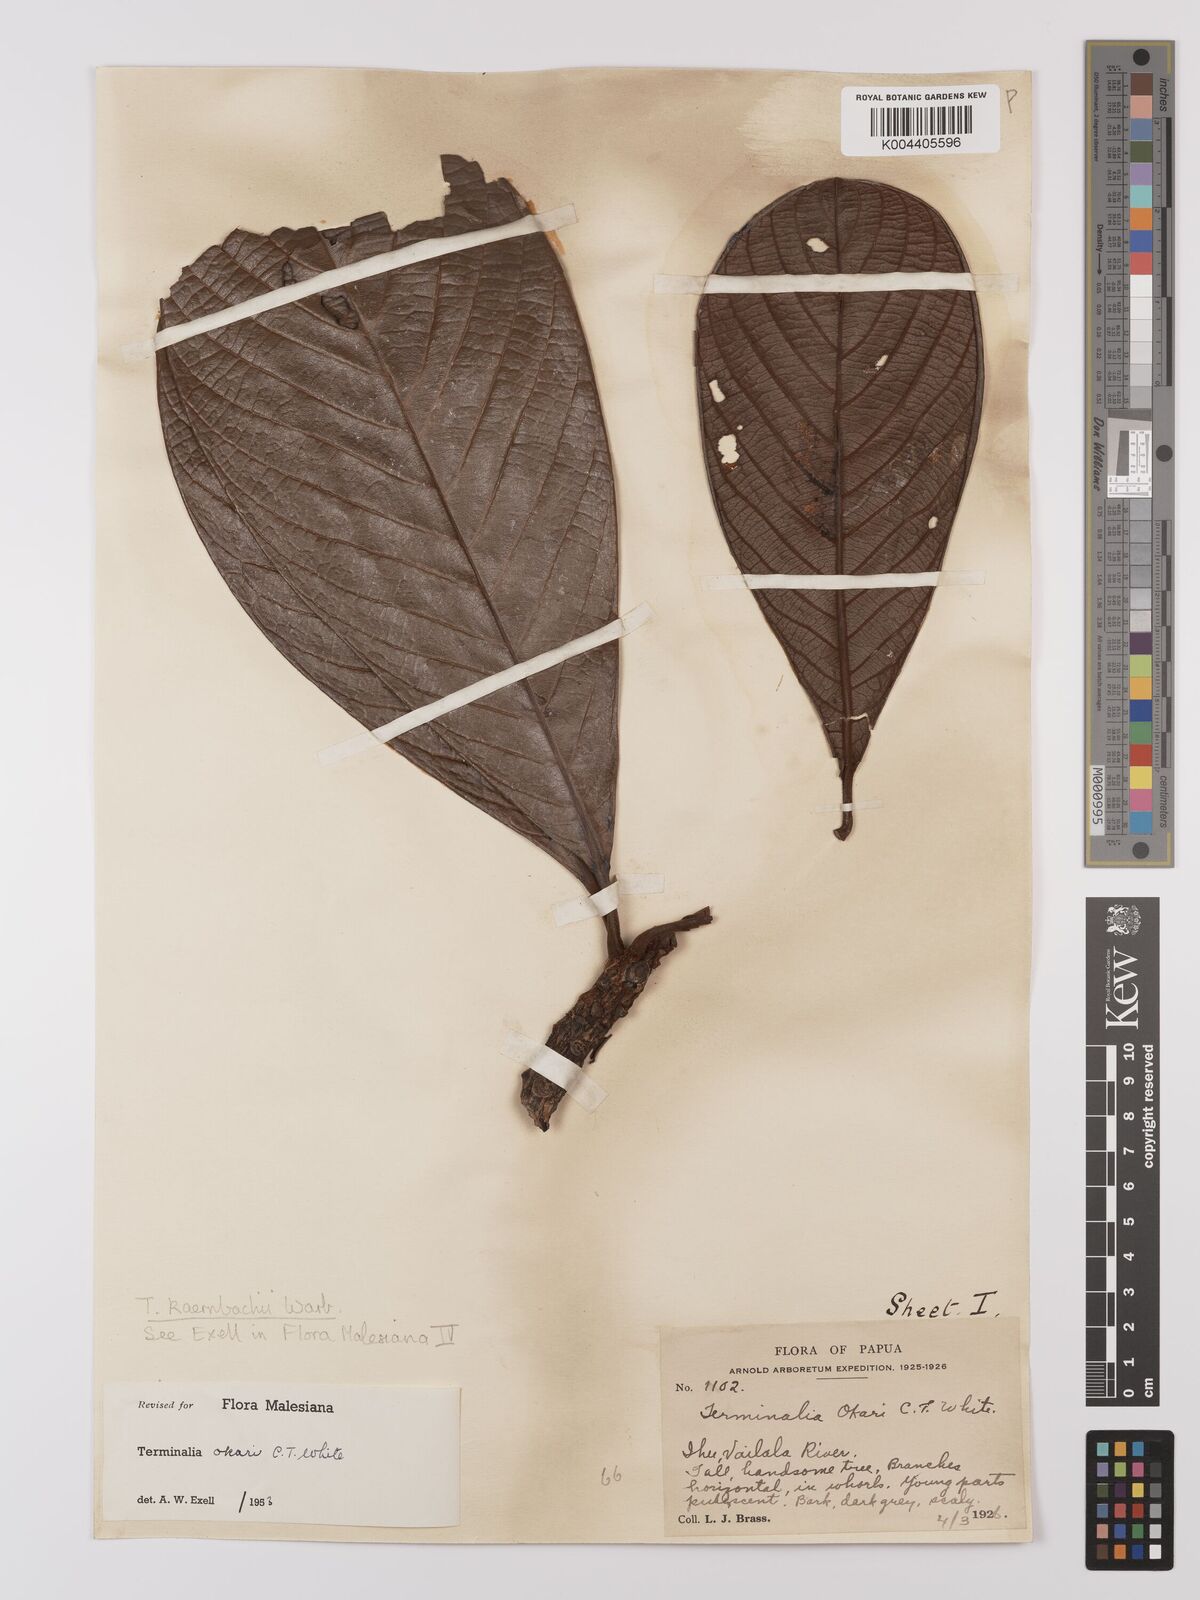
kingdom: Plantae
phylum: Tracheophyta
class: Magnoliopsida
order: Myrtales
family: Combretaceae
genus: Terminalia
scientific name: Terminalia kaernbachii
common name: Okari-nut
